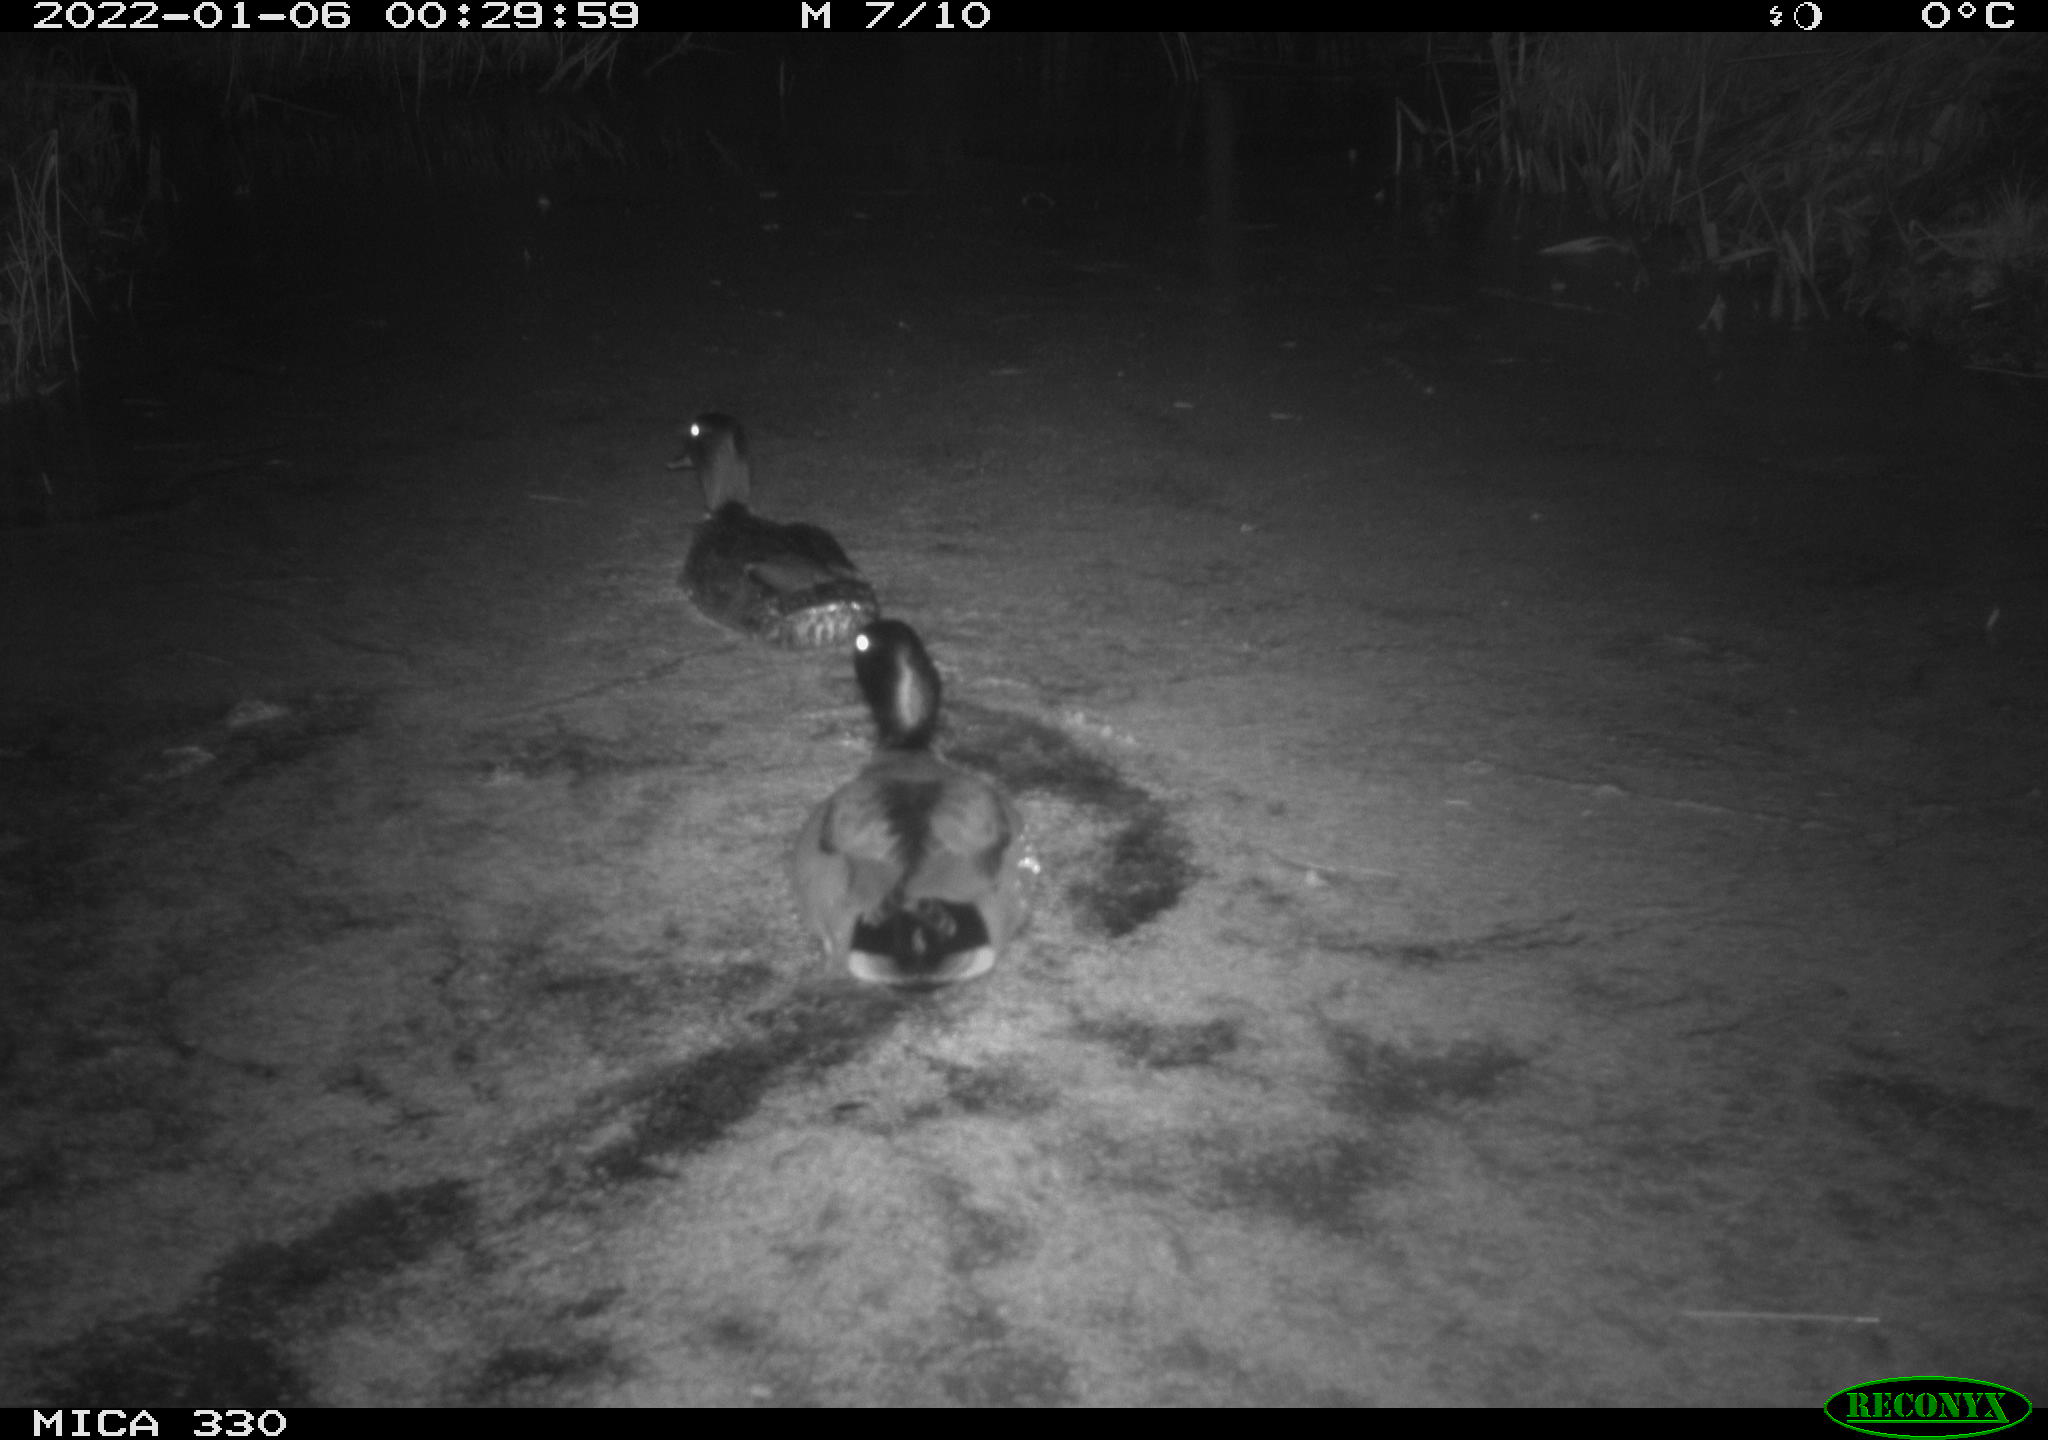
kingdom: Animalia
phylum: Chordata
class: Aves
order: Anseriformes
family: Anatidae
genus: Anas
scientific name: Anas platyrhynchos
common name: Mallard
